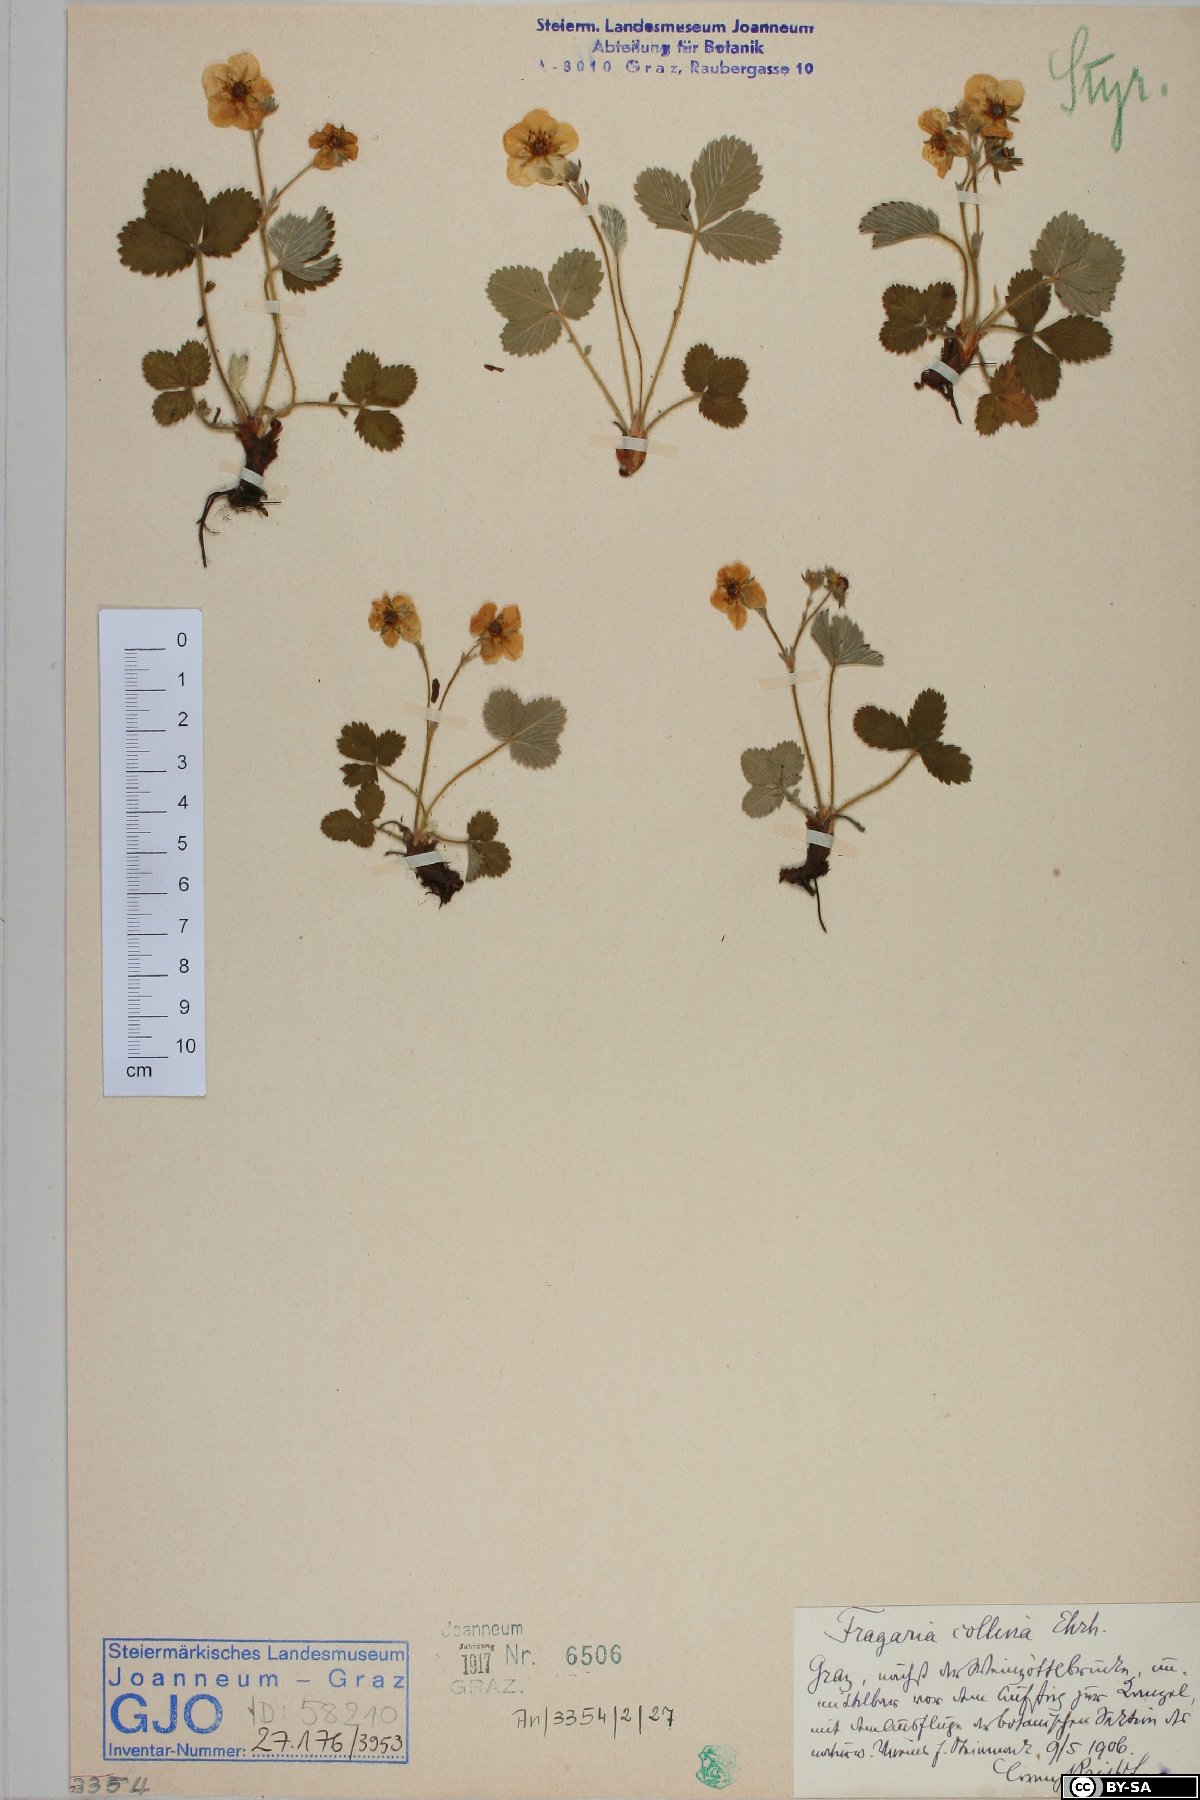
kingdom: Plantae
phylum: Tracheophyta
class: Magnoliopsida
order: Rosales
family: Rosaceae
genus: Fragaria
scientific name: Fragaria viridis
